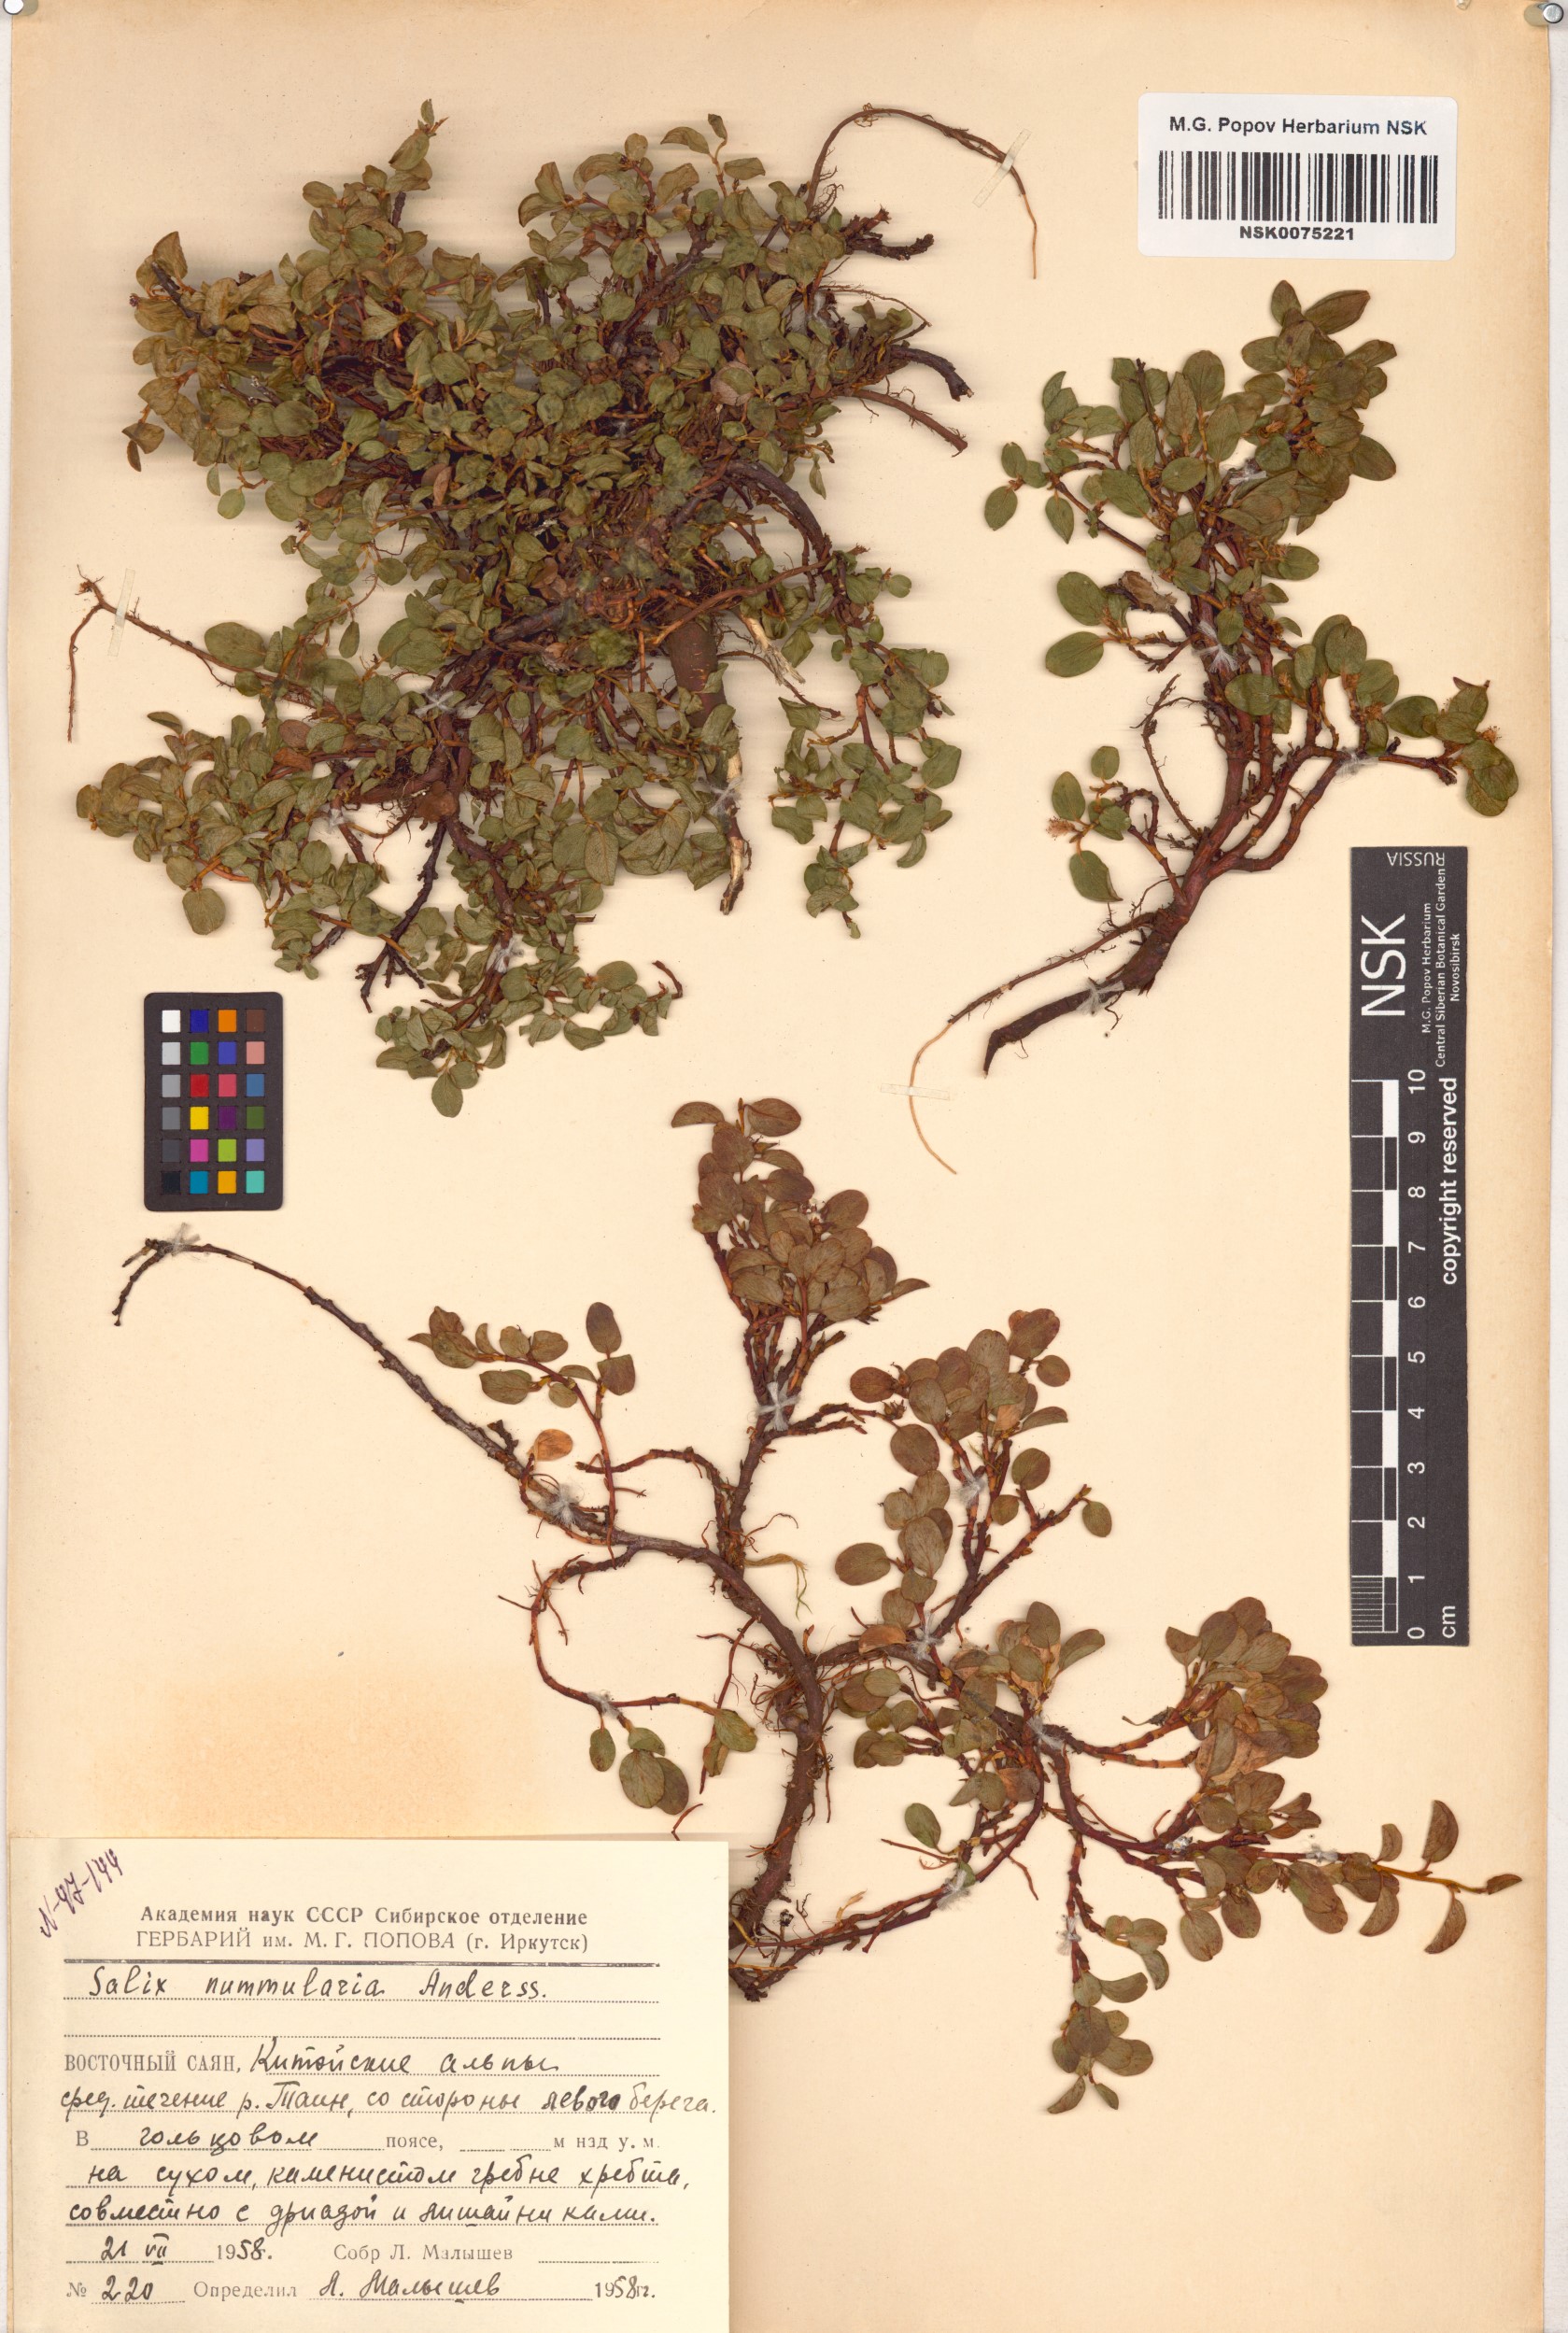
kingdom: Plantae
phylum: Tracheophyta
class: Magnoliopsida
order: Malpighiales
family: Salicaceae
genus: Salix
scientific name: Salix nummularia
